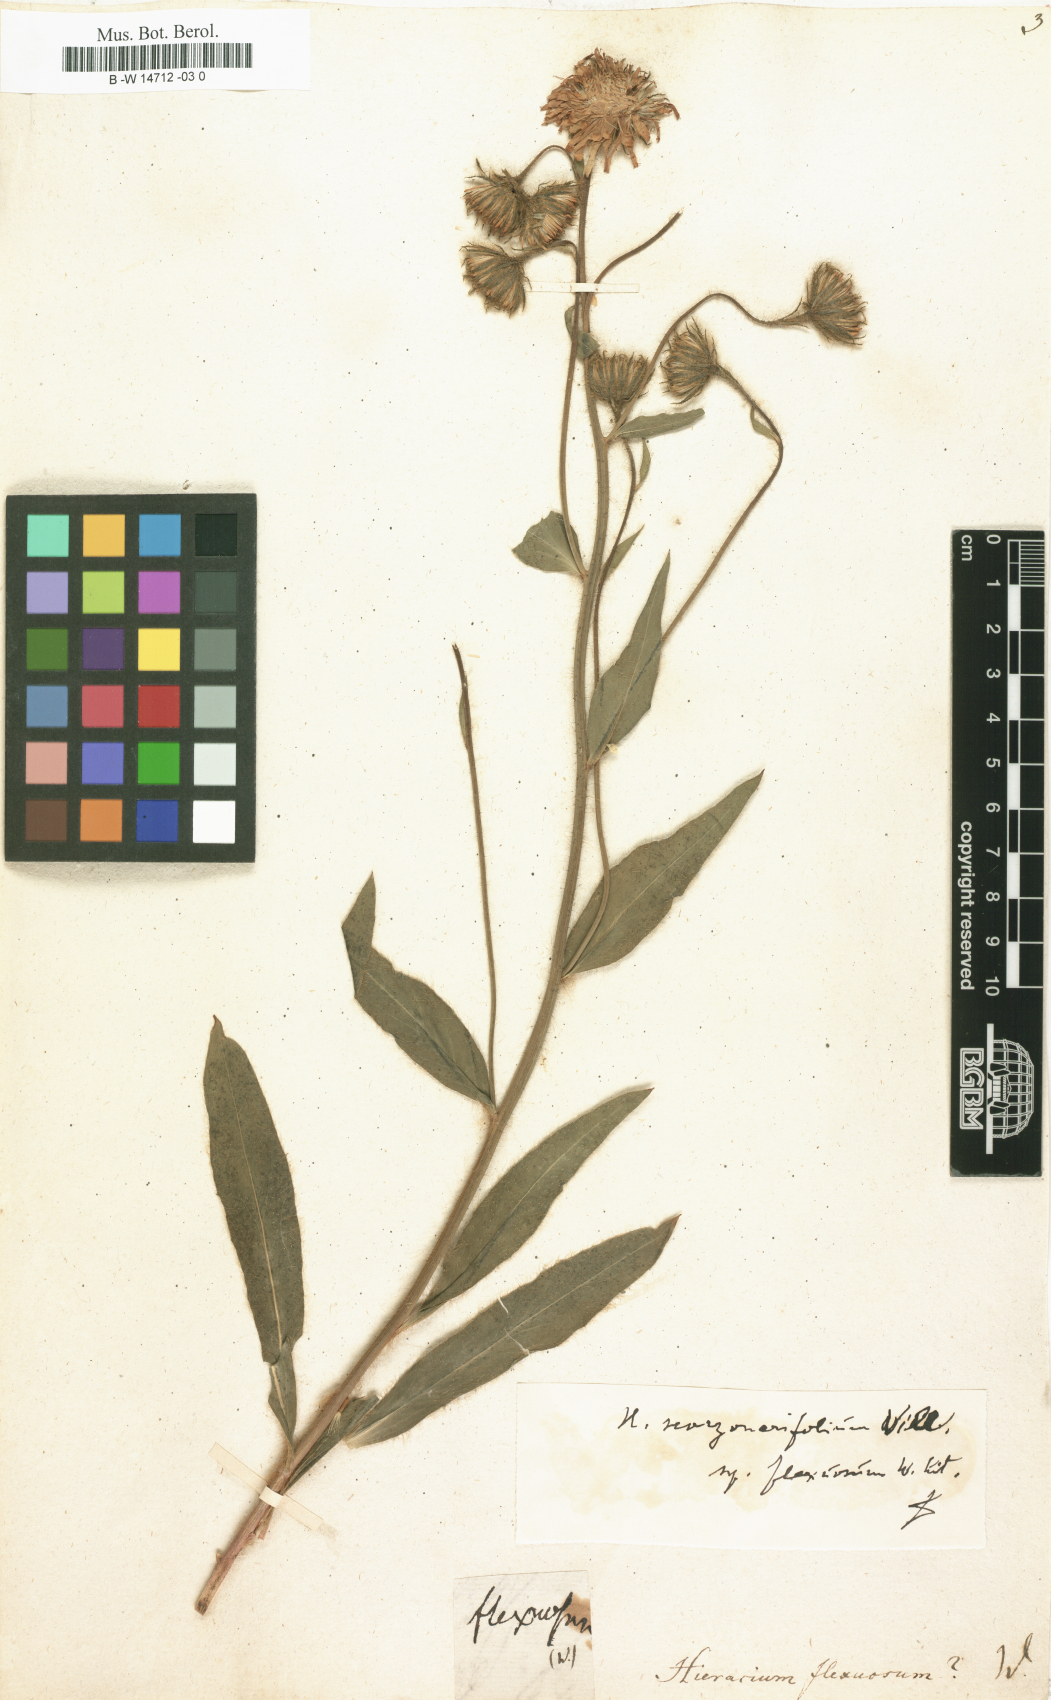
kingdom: Plantae
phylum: Tracheophyta
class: Magnoliopsida
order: Asterales
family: Asteraceae
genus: Hieracium
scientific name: Hieracium scorzonerifolium
